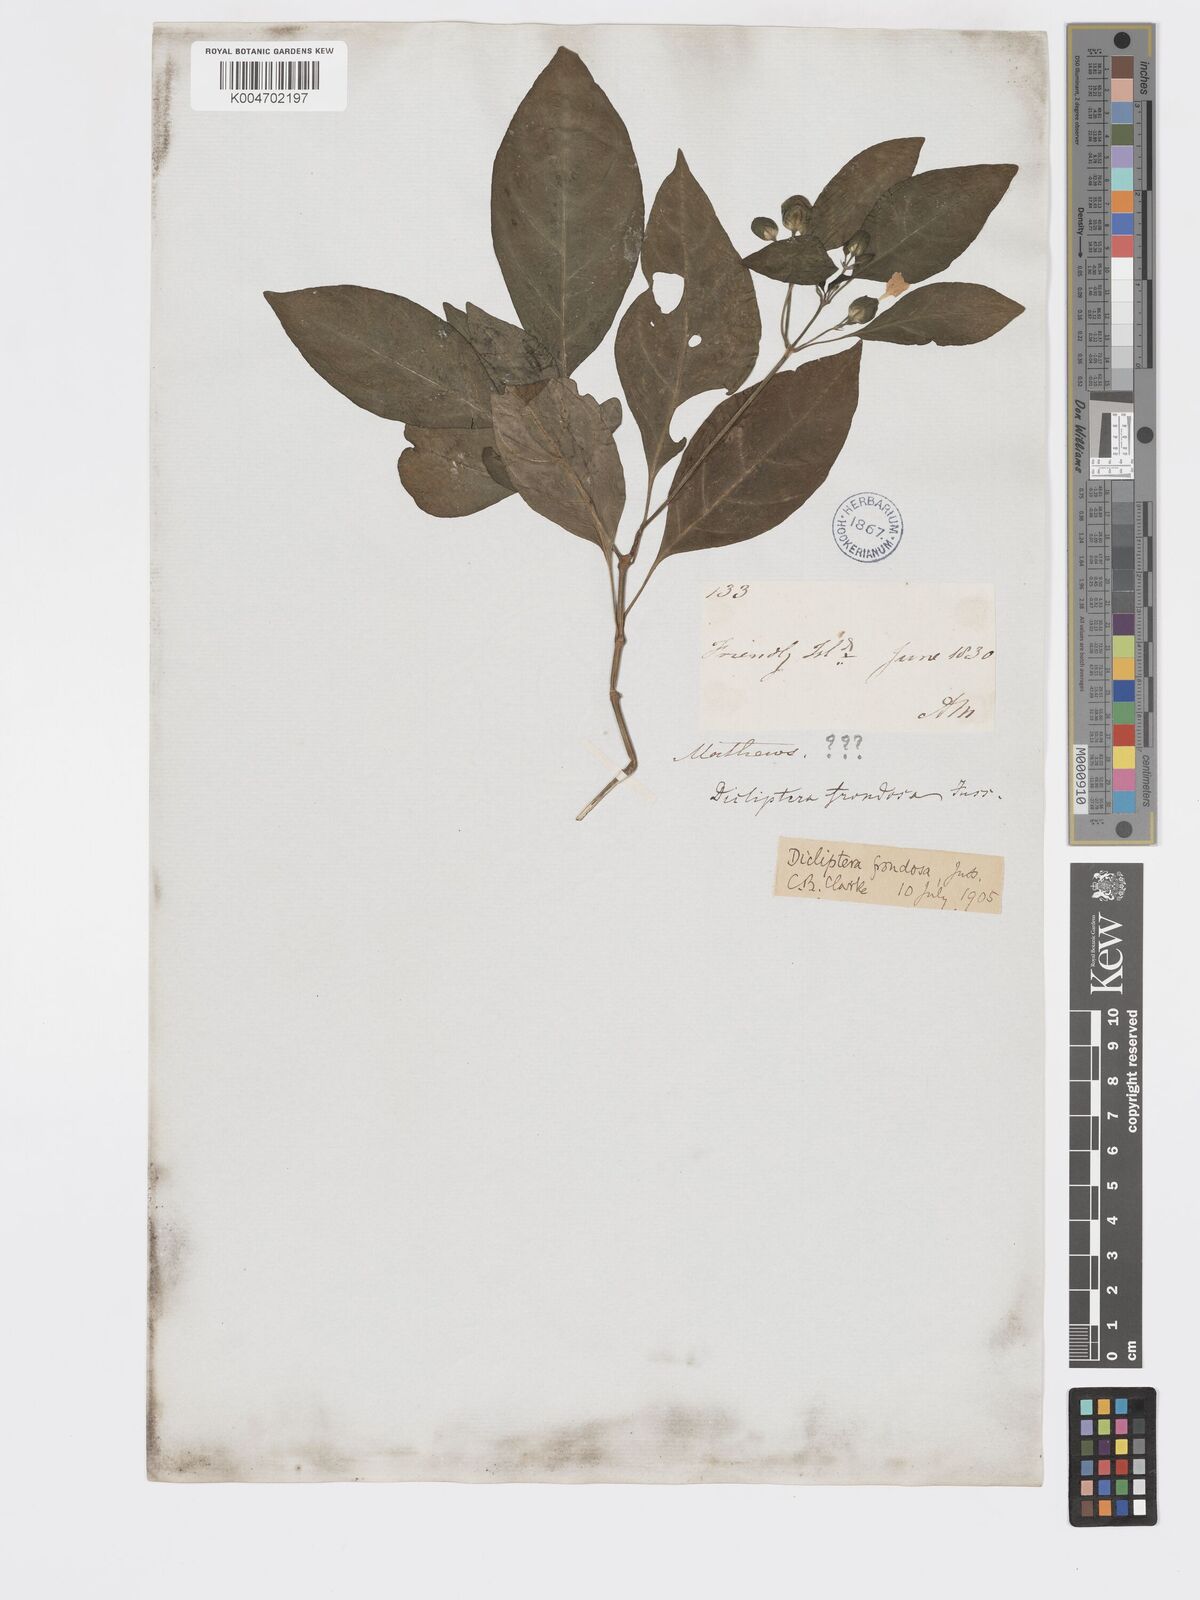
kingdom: Plantae
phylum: Tracheophyta
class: Magnoliopsida
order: Lamiales
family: Acanthaceae
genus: Dicliptera
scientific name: Dicliptera clavata
